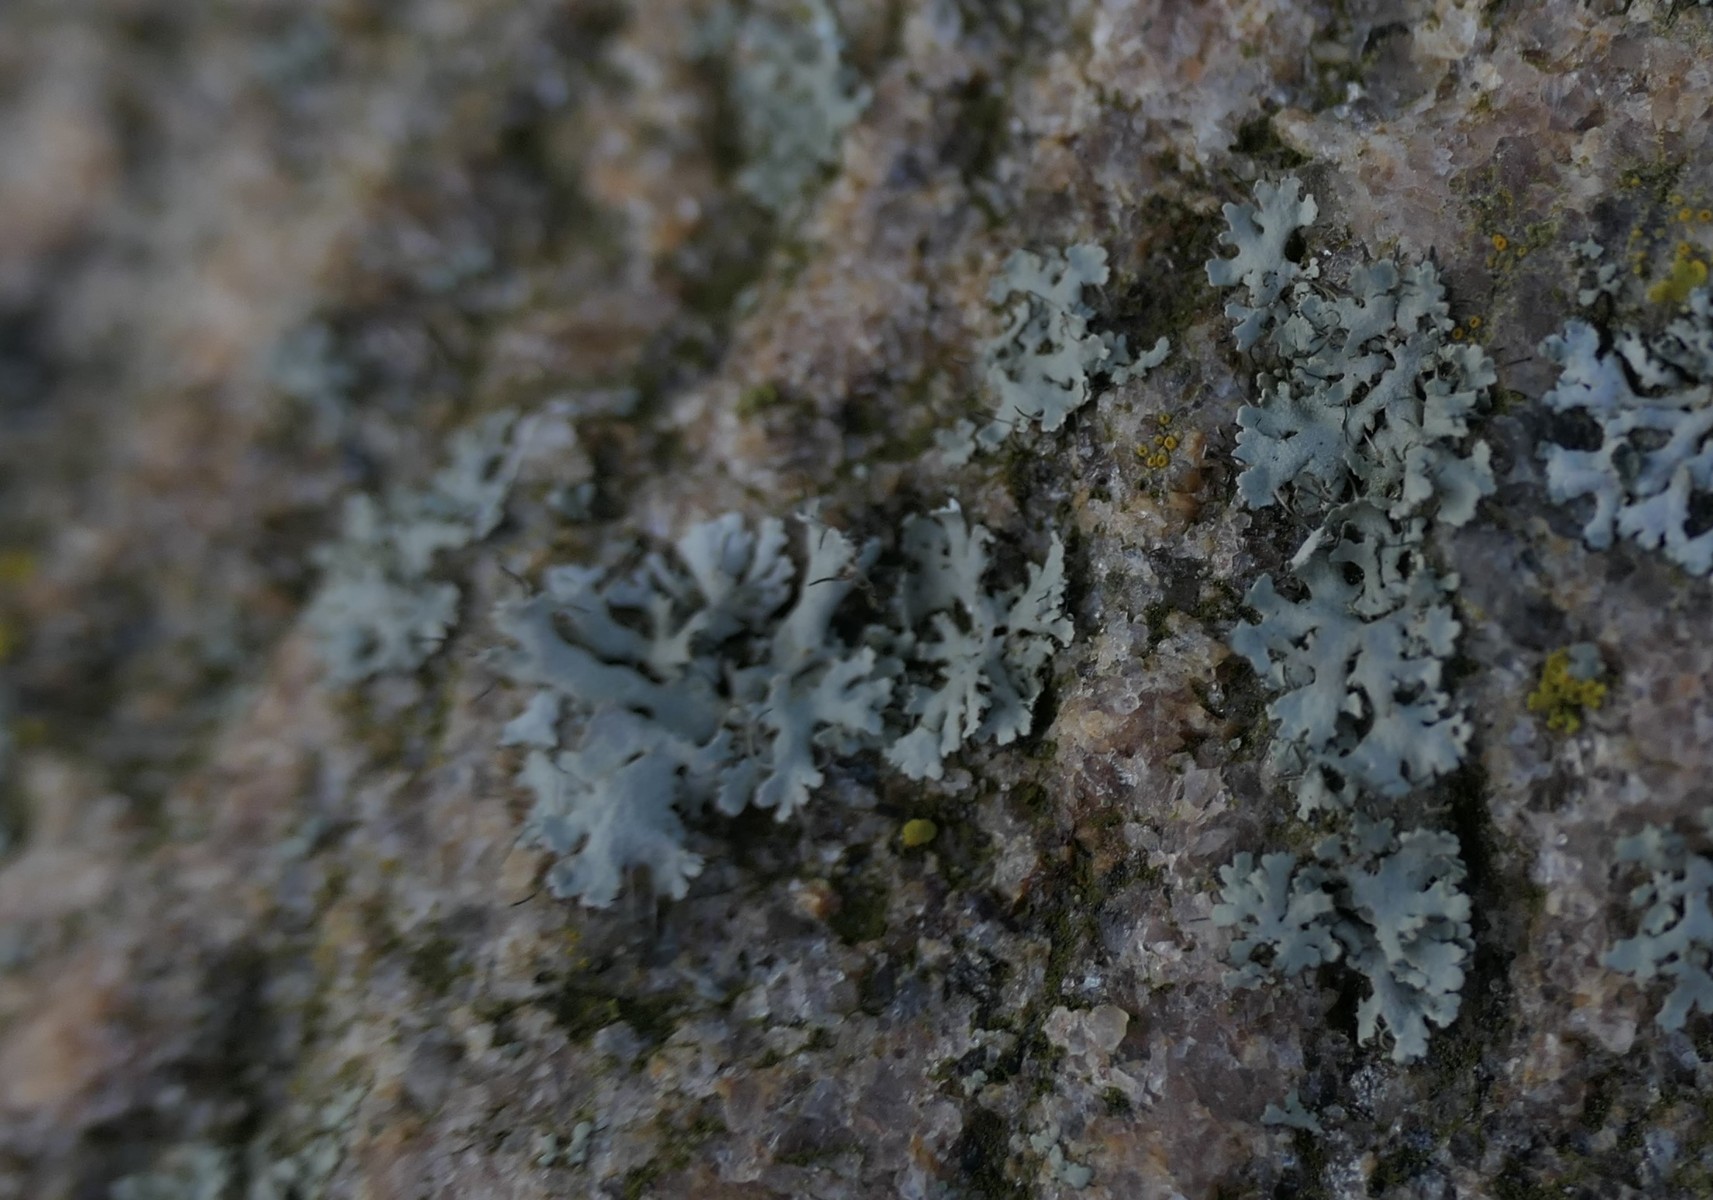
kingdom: Fungi
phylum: Ascomycota
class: Lecanoromycetes
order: Caliciales
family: Physciaceae
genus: Physcia
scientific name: Physcia tenella
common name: spæd rosetlav
